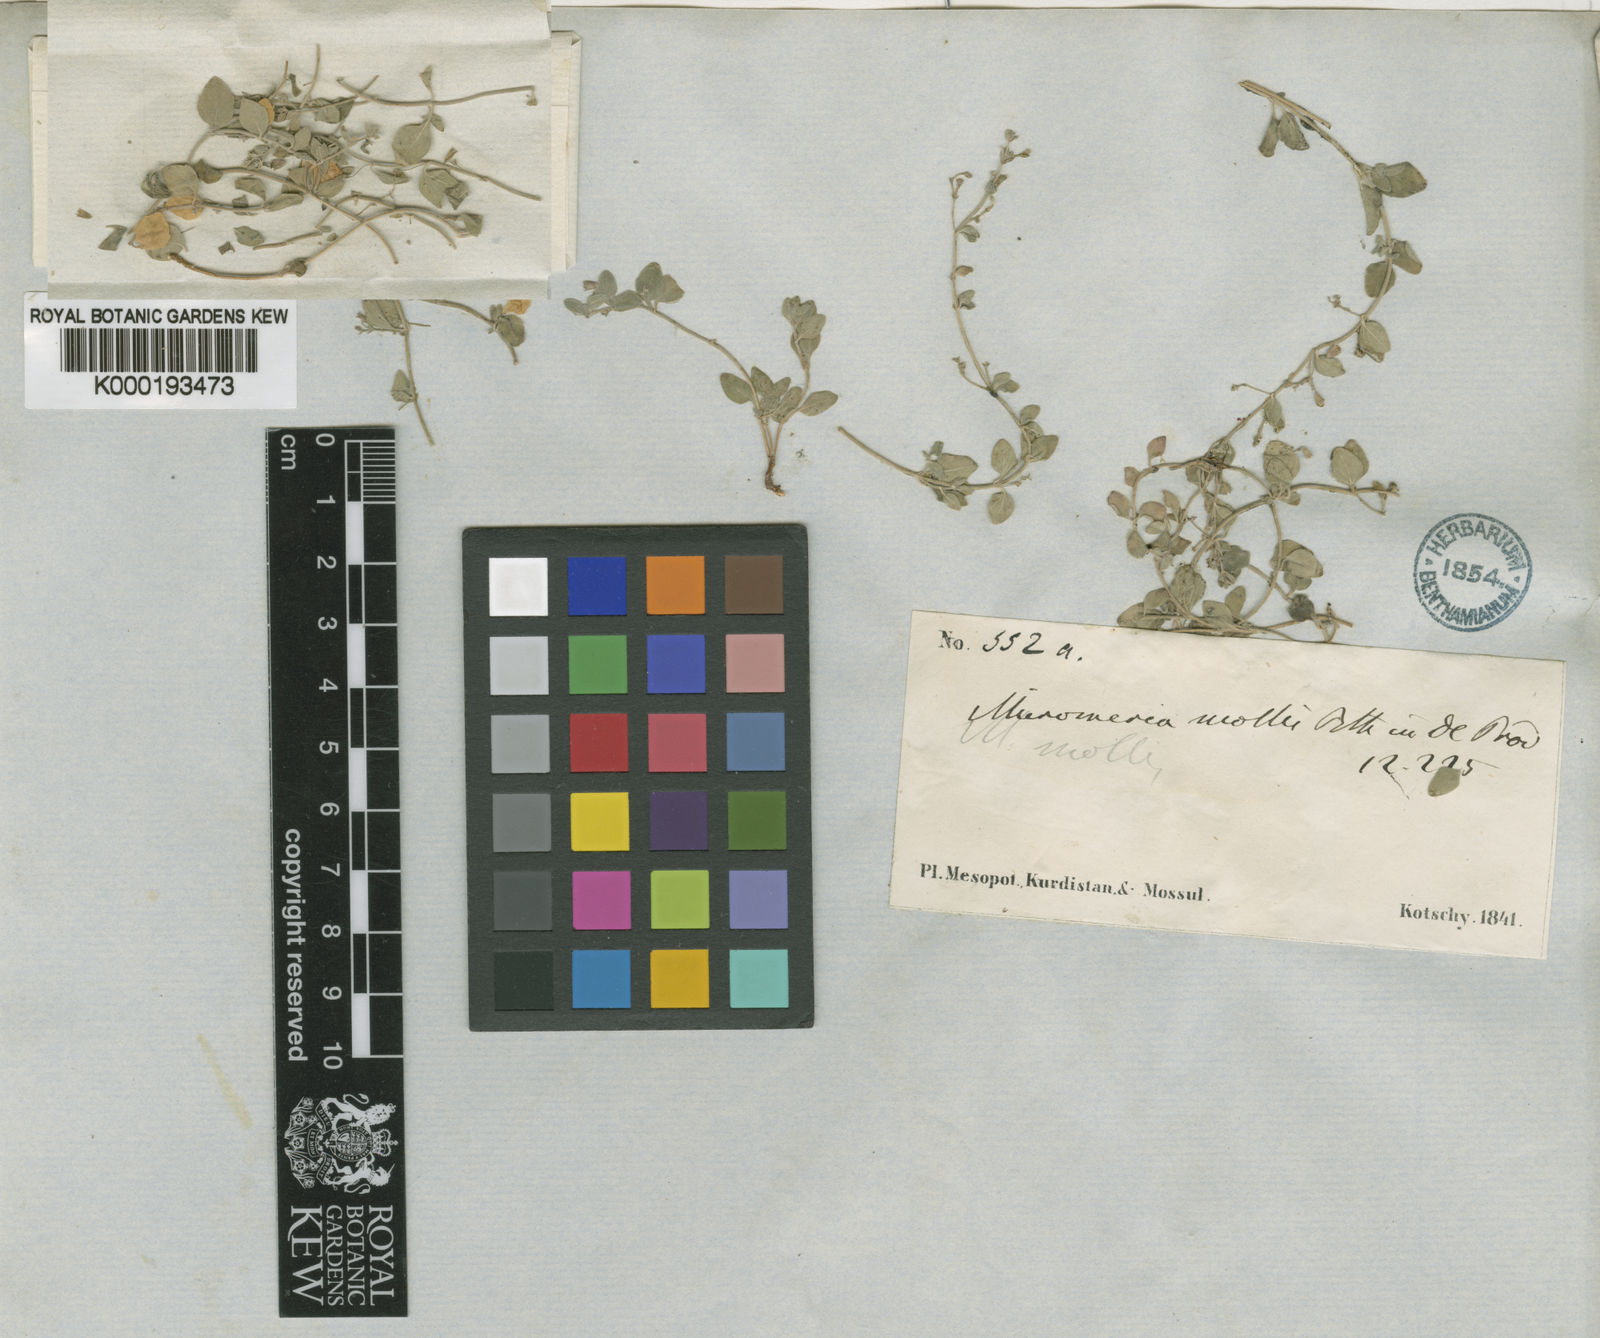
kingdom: Plantae
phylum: Tracheophyta
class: Magnoliopsida
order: Lamiales
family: Lamiaceae
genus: Clinopodium
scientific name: Clinopodium molle
